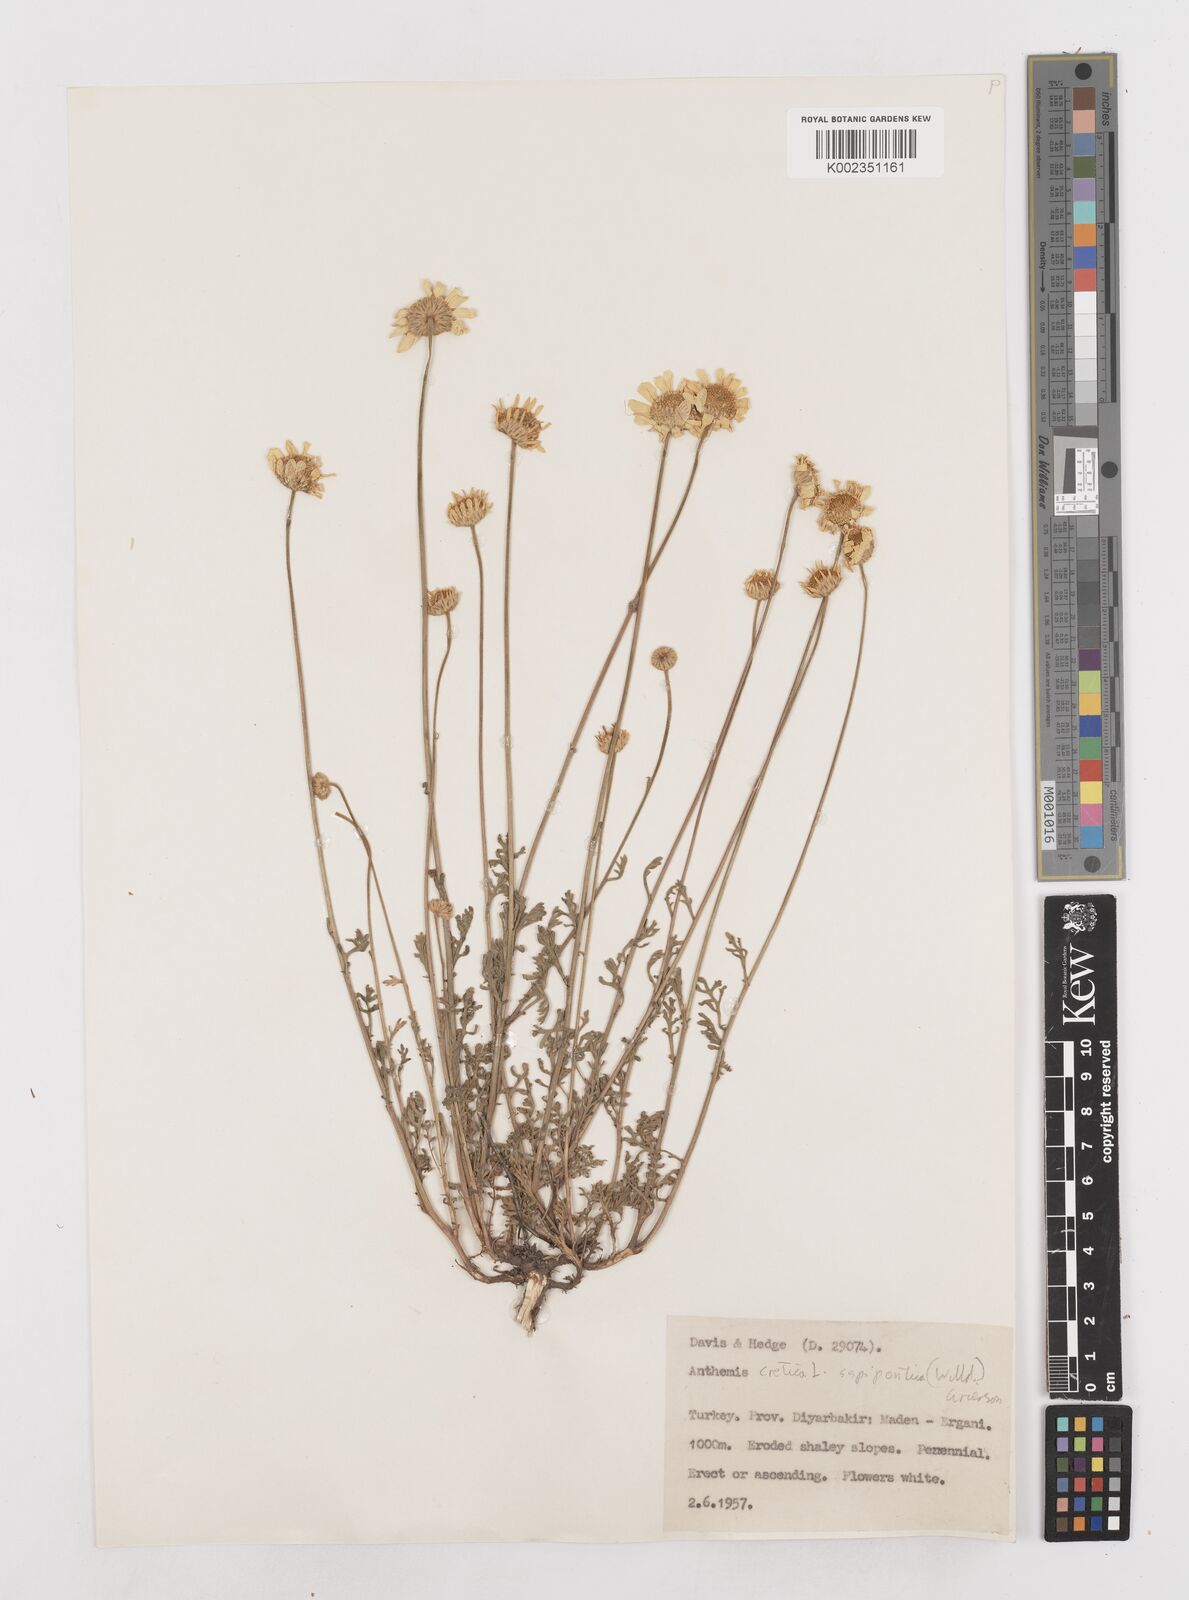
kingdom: Plantae
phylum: Tracheophyta
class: Magnoliopsida
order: Asterales
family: Asteraceae
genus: Anthemis
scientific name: Anthemis cretica
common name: Mountain dog-daisy
